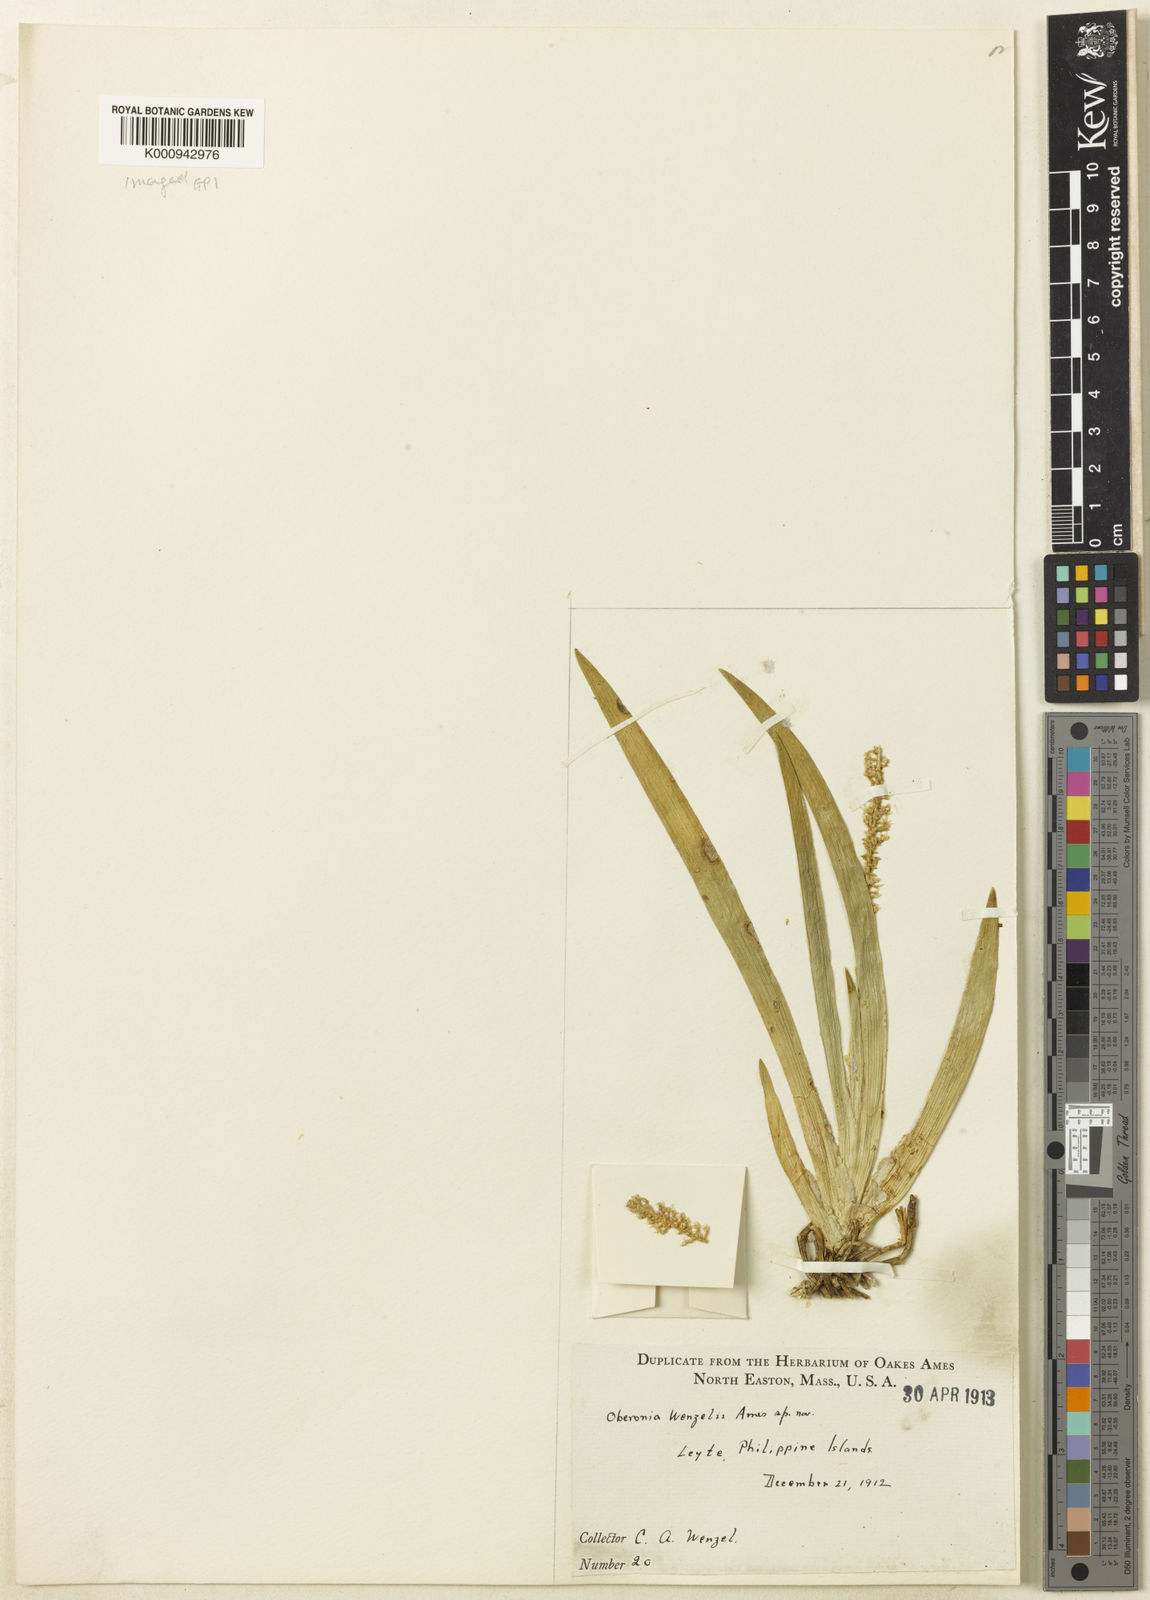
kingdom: Plantae
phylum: Tracheophyta
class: Liliopsida
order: Asparagales
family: Orchidaceae
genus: Oberonia
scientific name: Oberonia wenzelii
